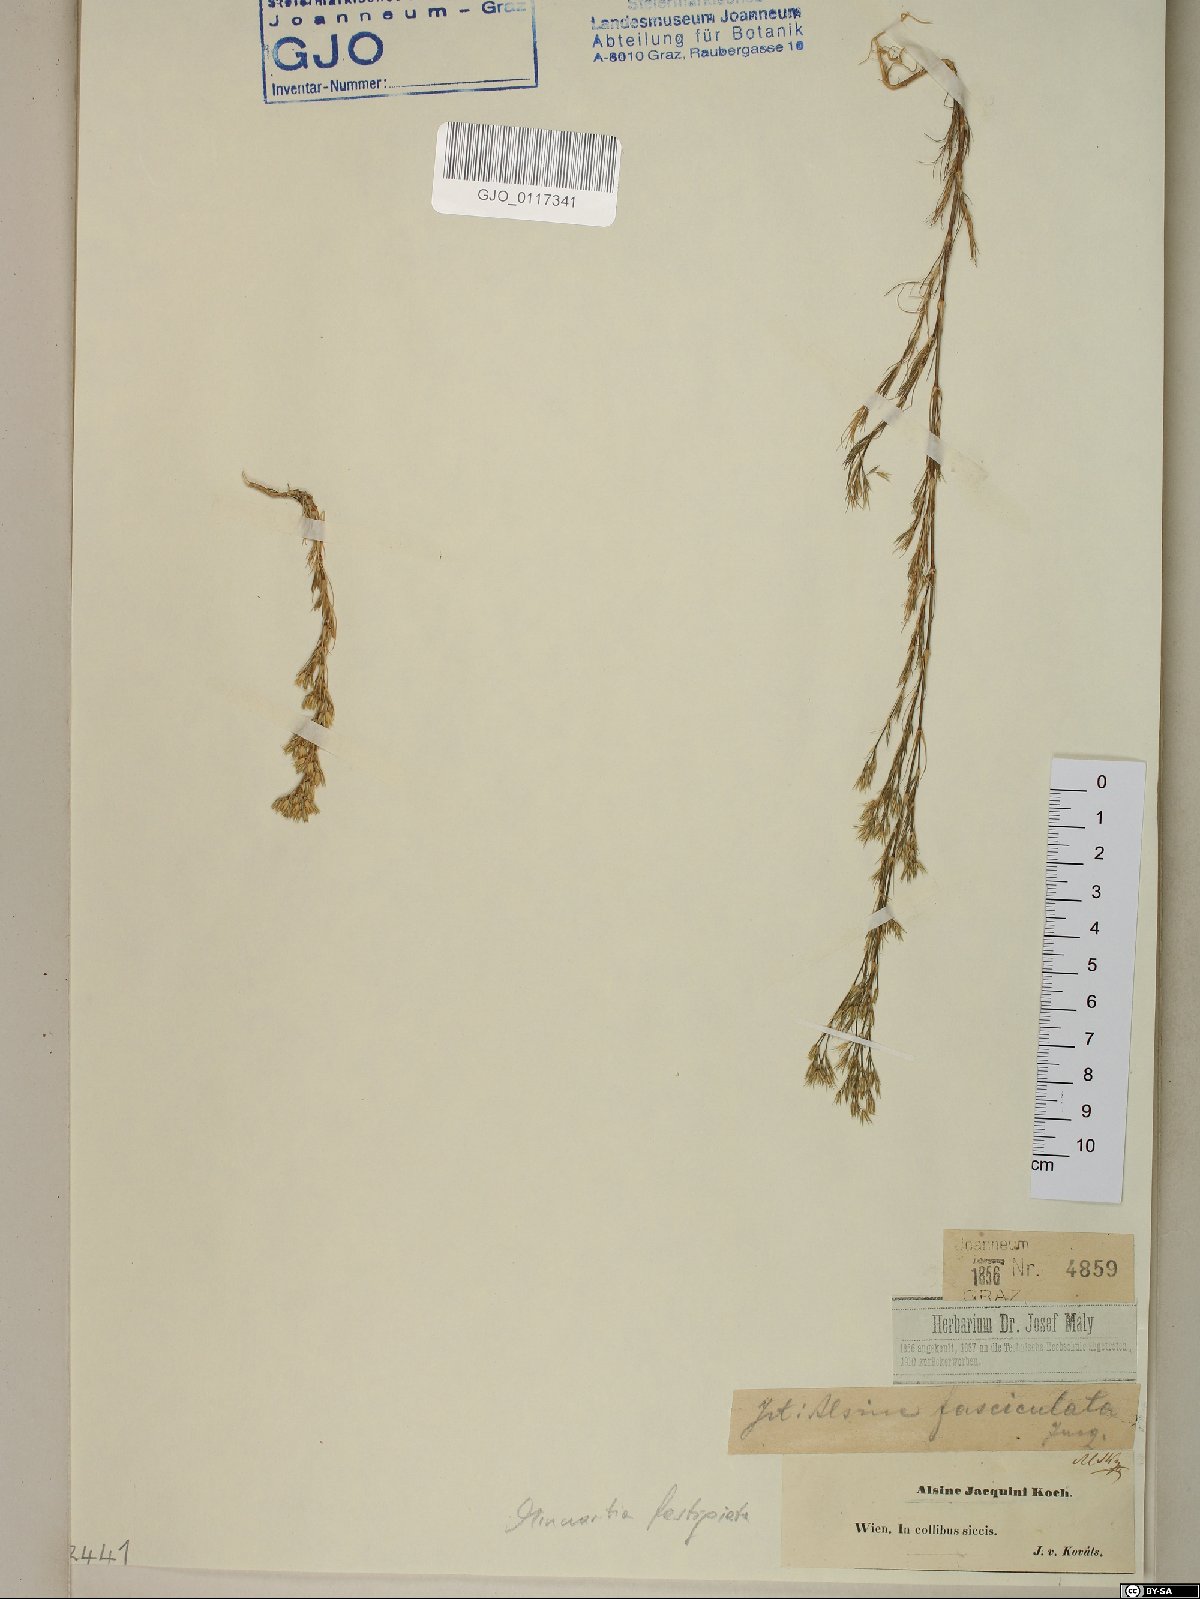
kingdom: Plantae
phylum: Tracheophyta
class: Magnoliopsida
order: Caryophyllales
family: Caryophyllaceae
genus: Minuartia
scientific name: Minuartia mucronata
